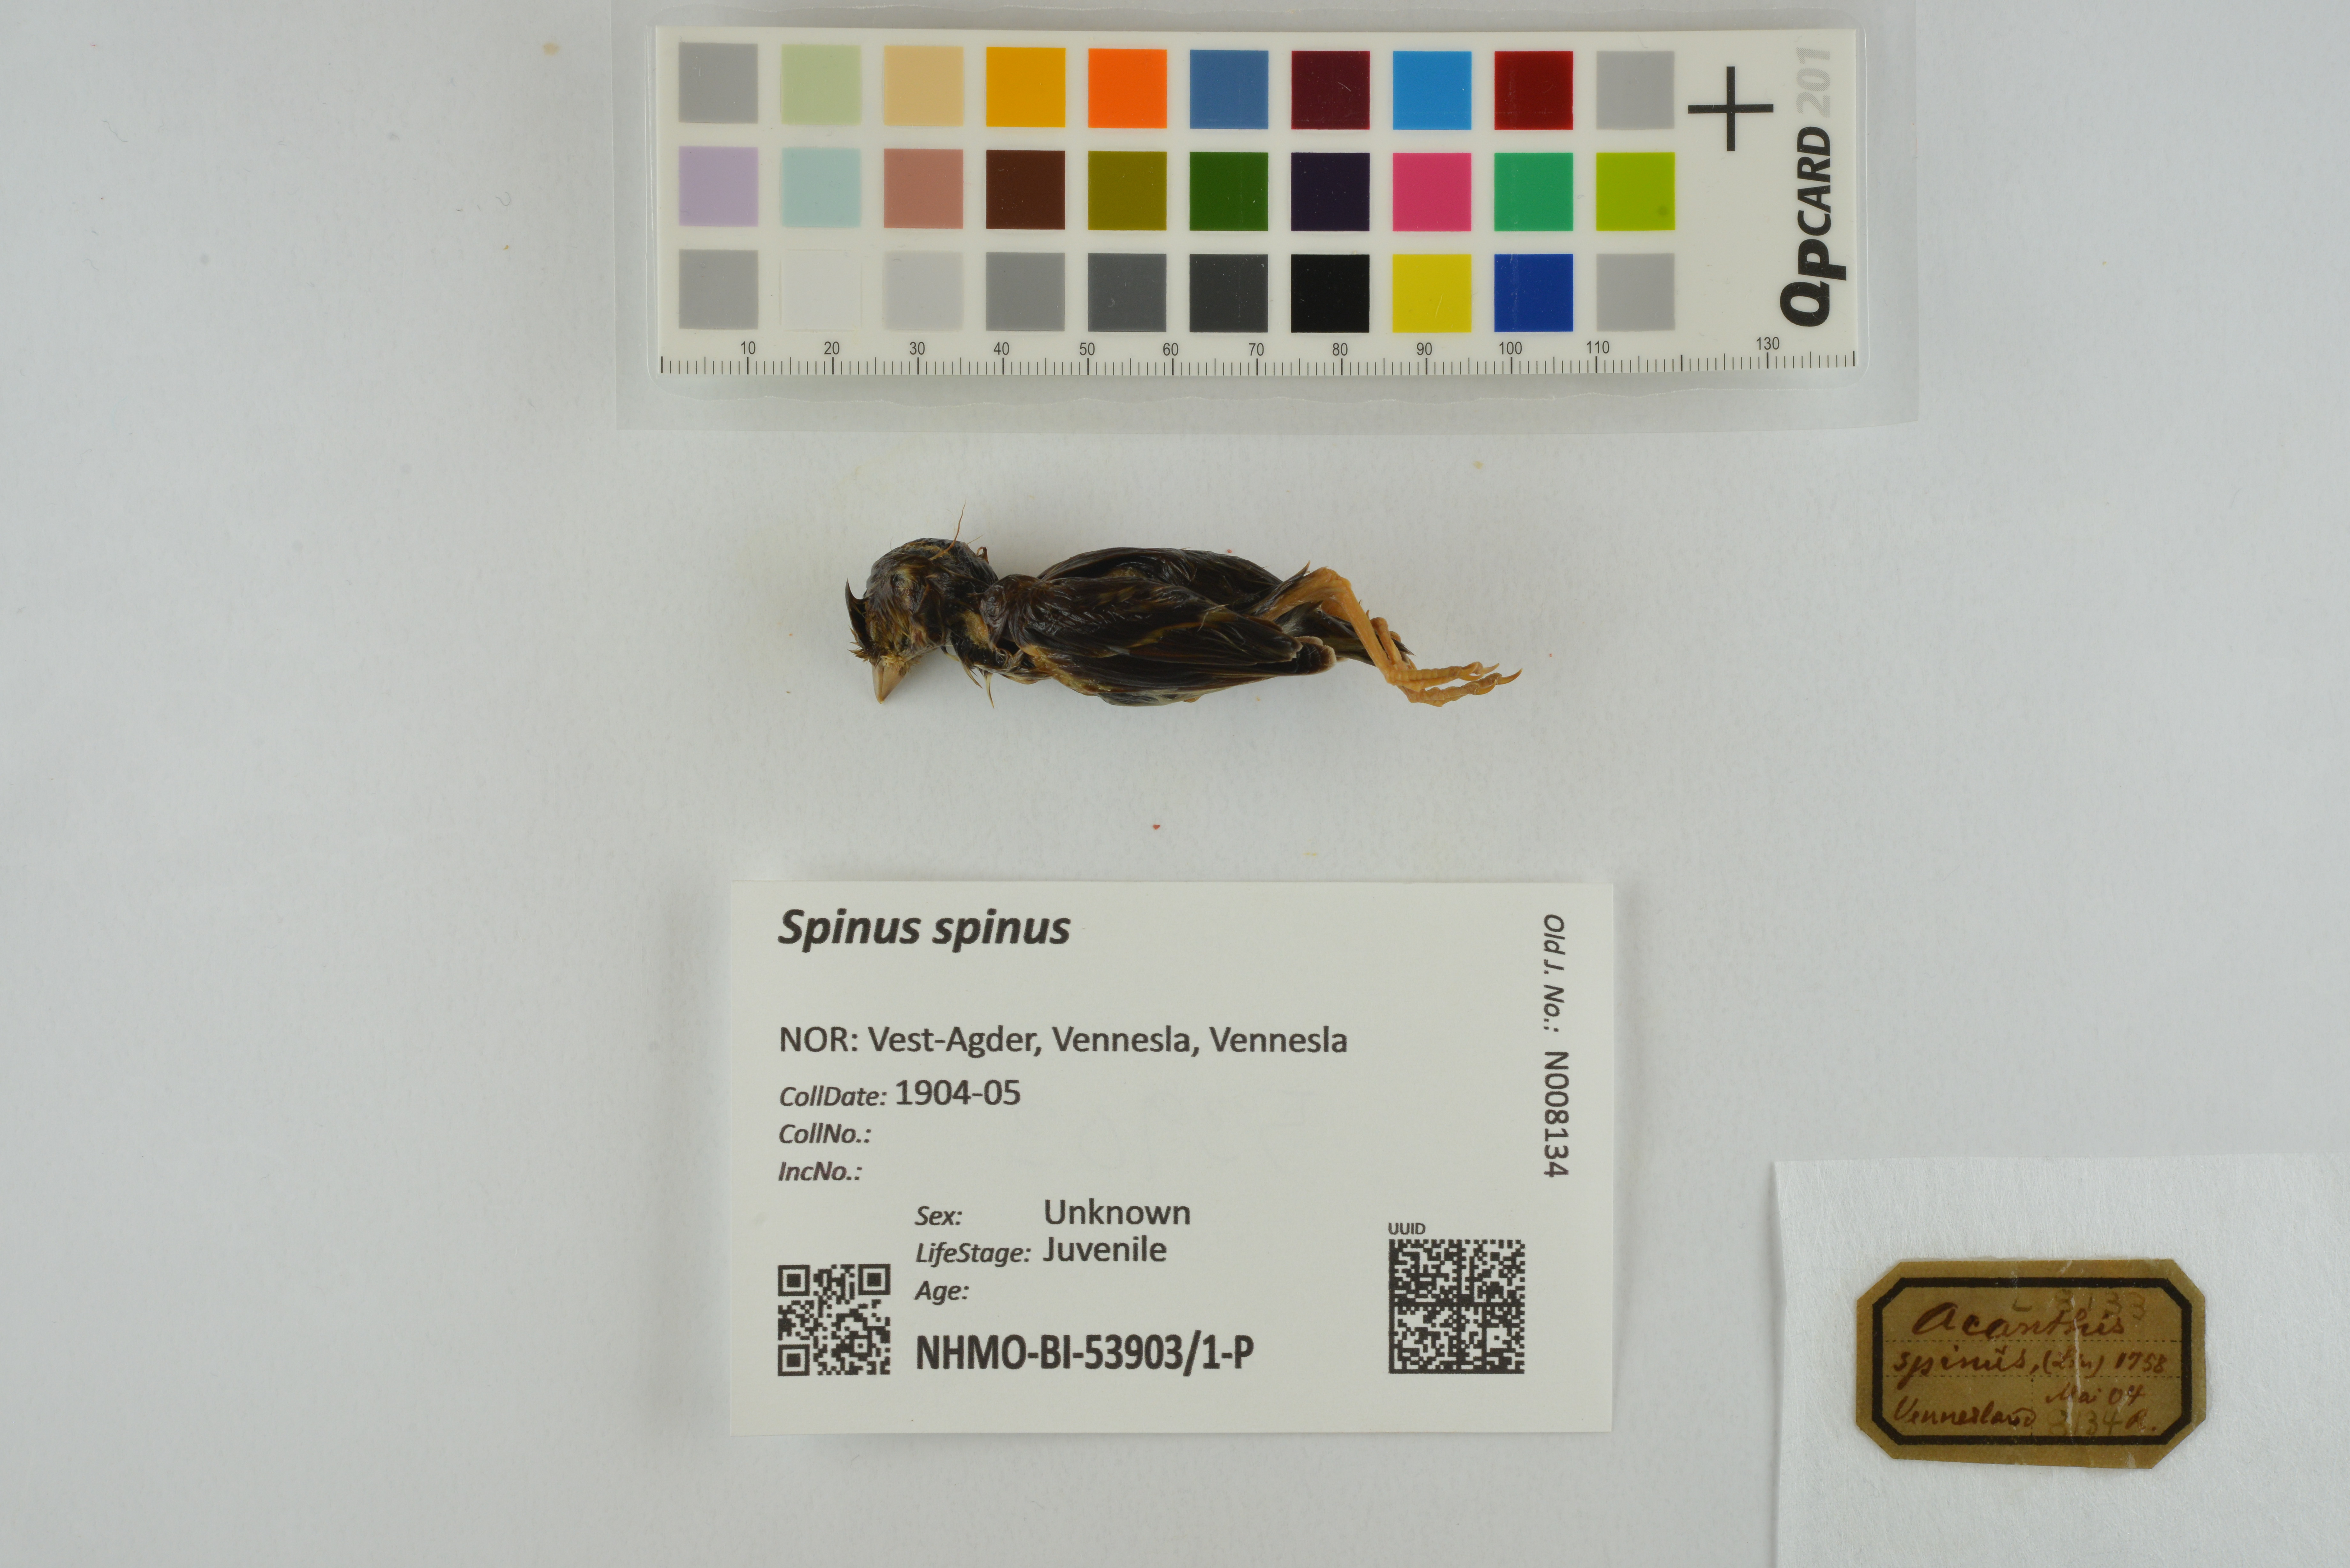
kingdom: Animalia
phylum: Chordata
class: Aves
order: Passeriformes
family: Fringillidae
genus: Spinus
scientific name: Spinus spinus
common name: Eurasian siskin
